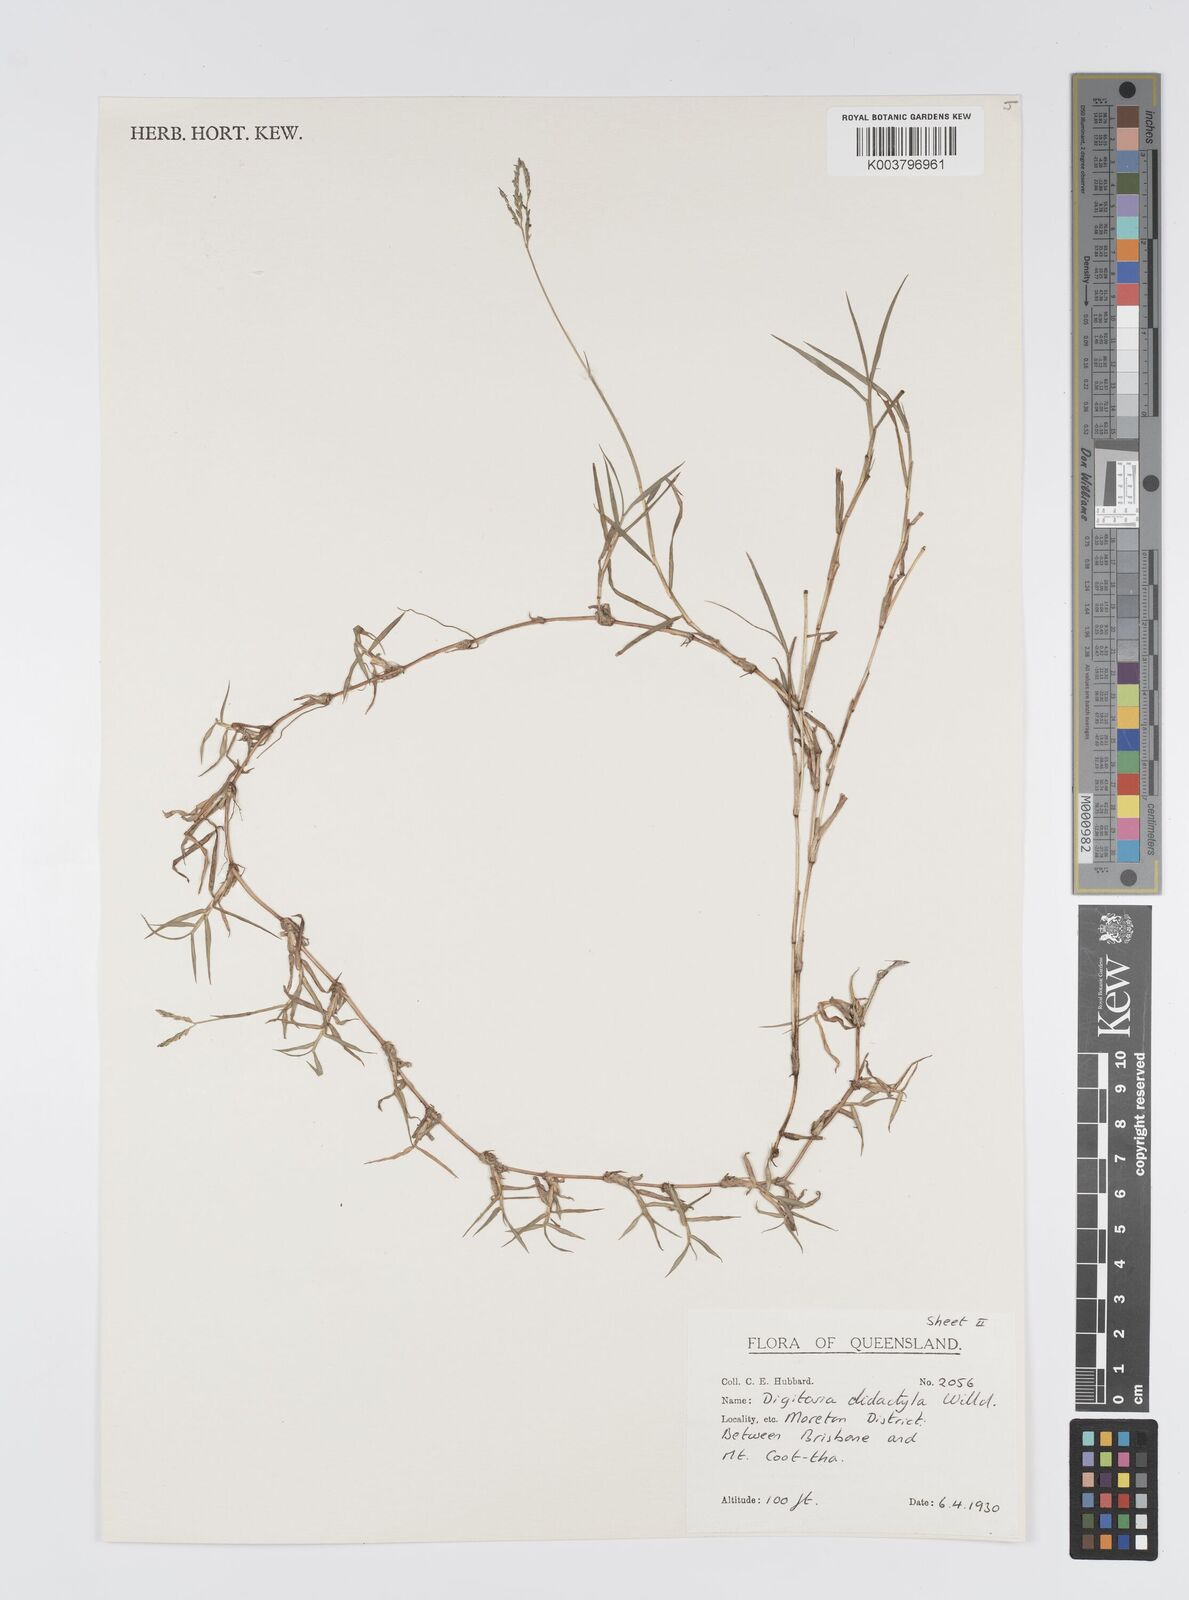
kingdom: Plantae
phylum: Tracheophyta
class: Liliopsida
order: Poales
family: Poaceae
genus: Digitaria
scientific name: Digitaria didactyla
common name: Blue couch
